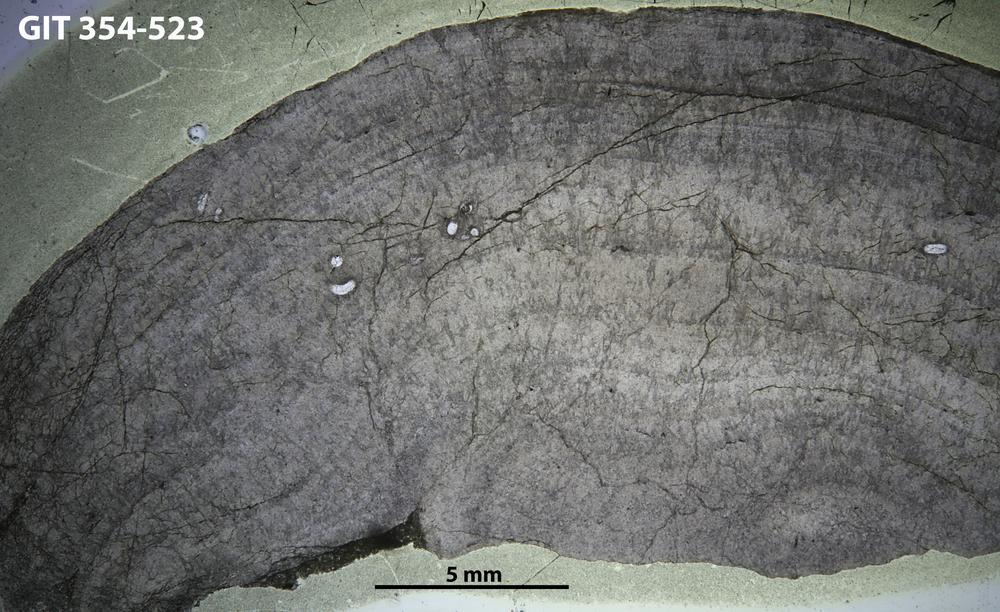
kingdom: Animalia
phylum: Porifera
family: Densastromatidae
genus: Densastroma
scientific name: Densastroma Actinostroma pexisum
